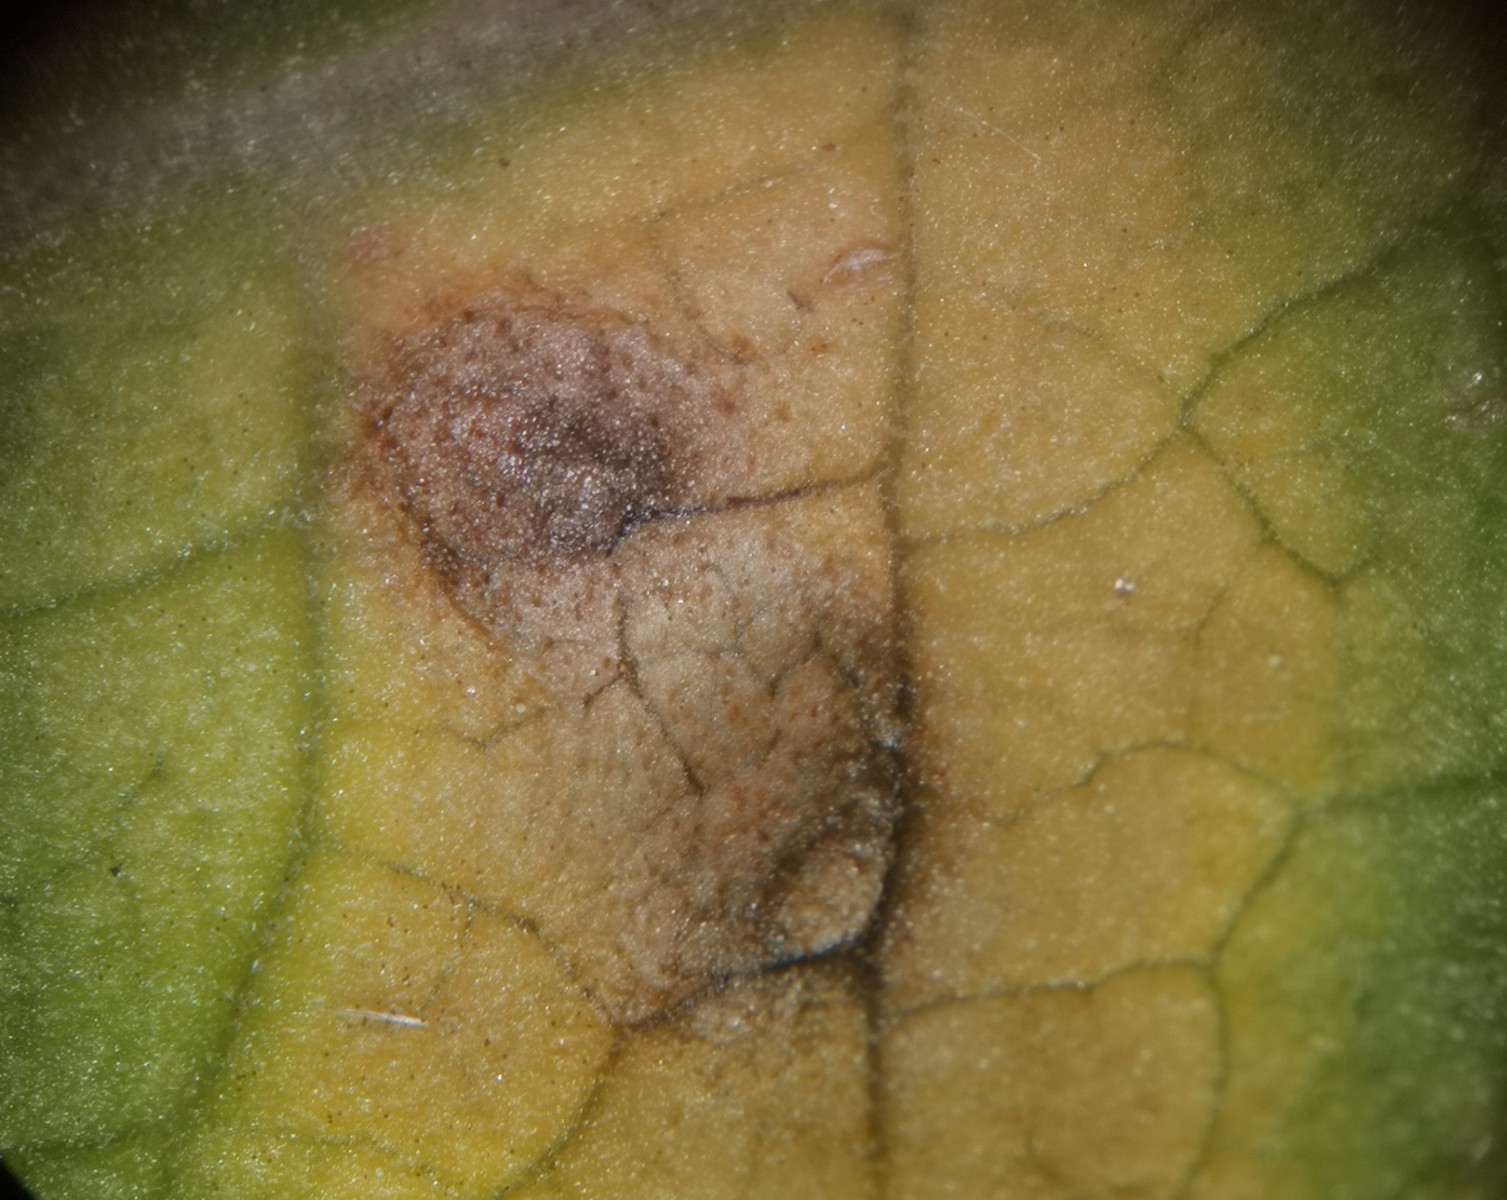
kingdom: Fungi
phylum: Basidiomycota
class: Pucciniomycetes
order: Pucciniales
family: Pucciniaceae
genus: Puccinia
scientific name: Puccinia primulae
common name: Primrose rust
